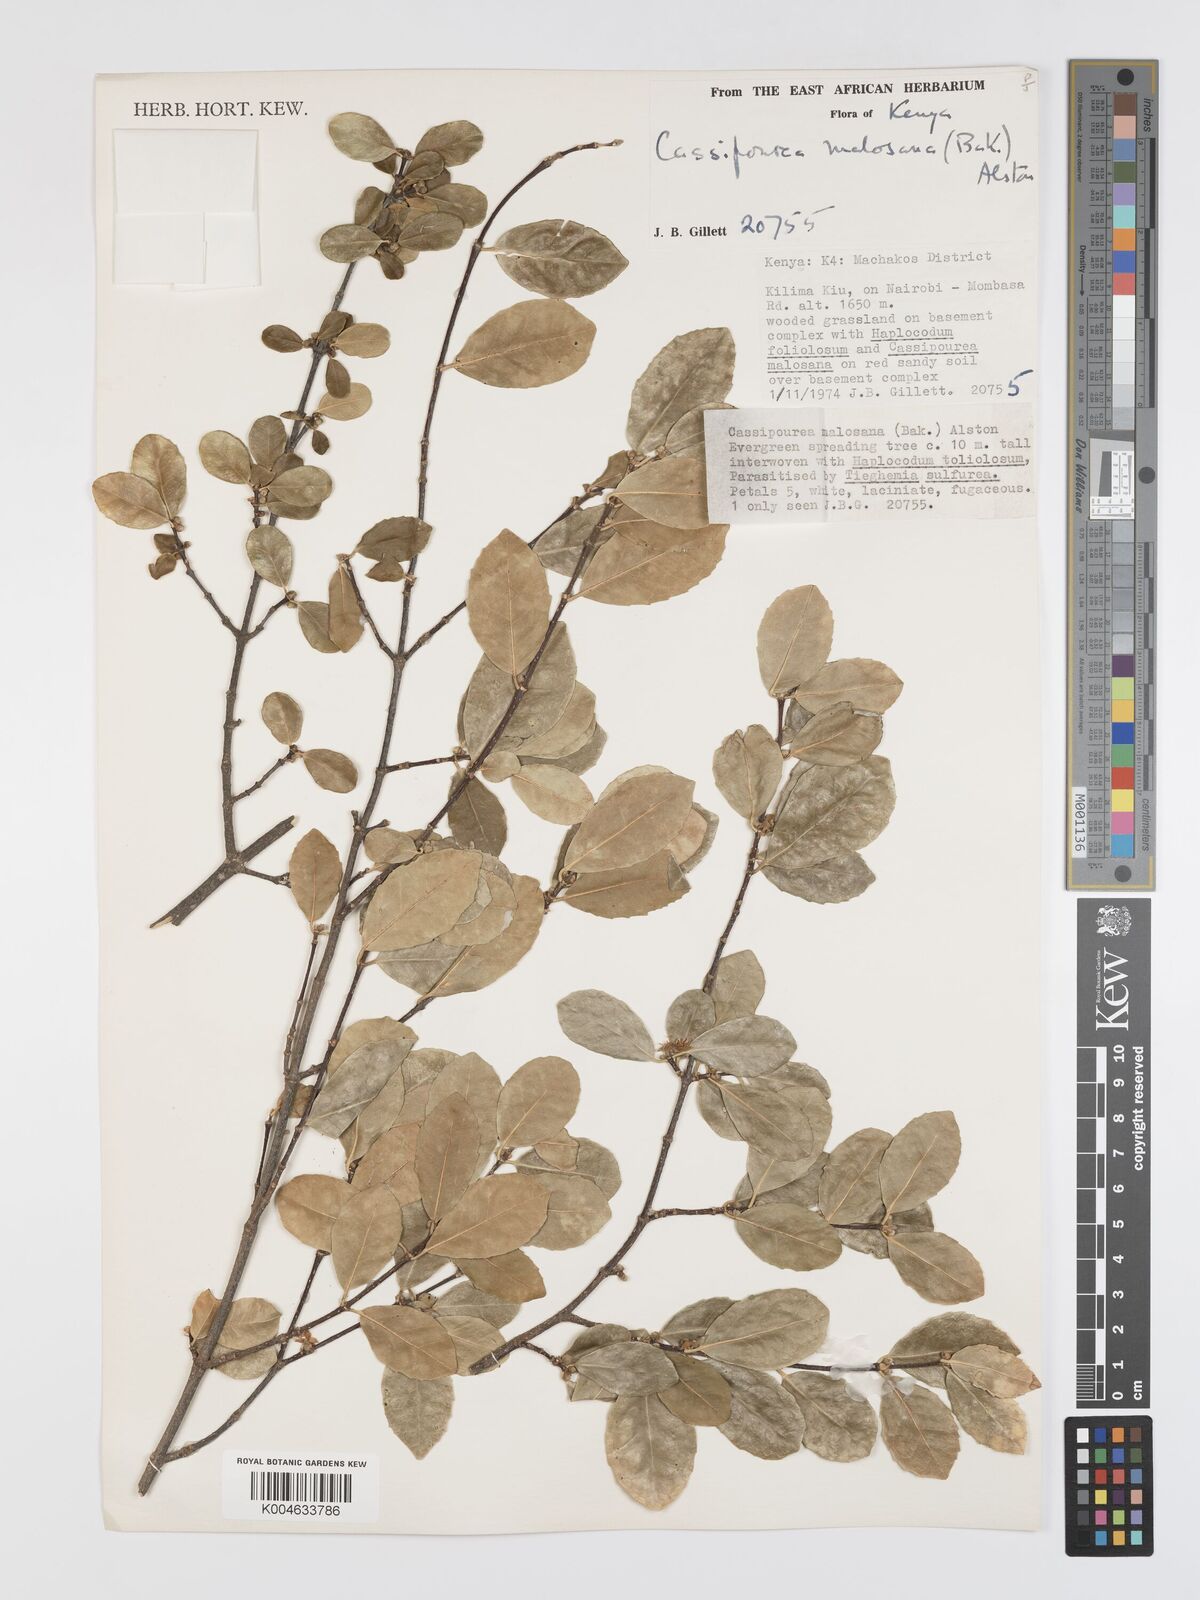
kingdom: Plantae
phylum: Tracheophyta
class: Magnoliopsida
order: Malpighiales
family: Rhizophoraceae
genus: Cassipourea
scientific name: Cassipourea malosana
